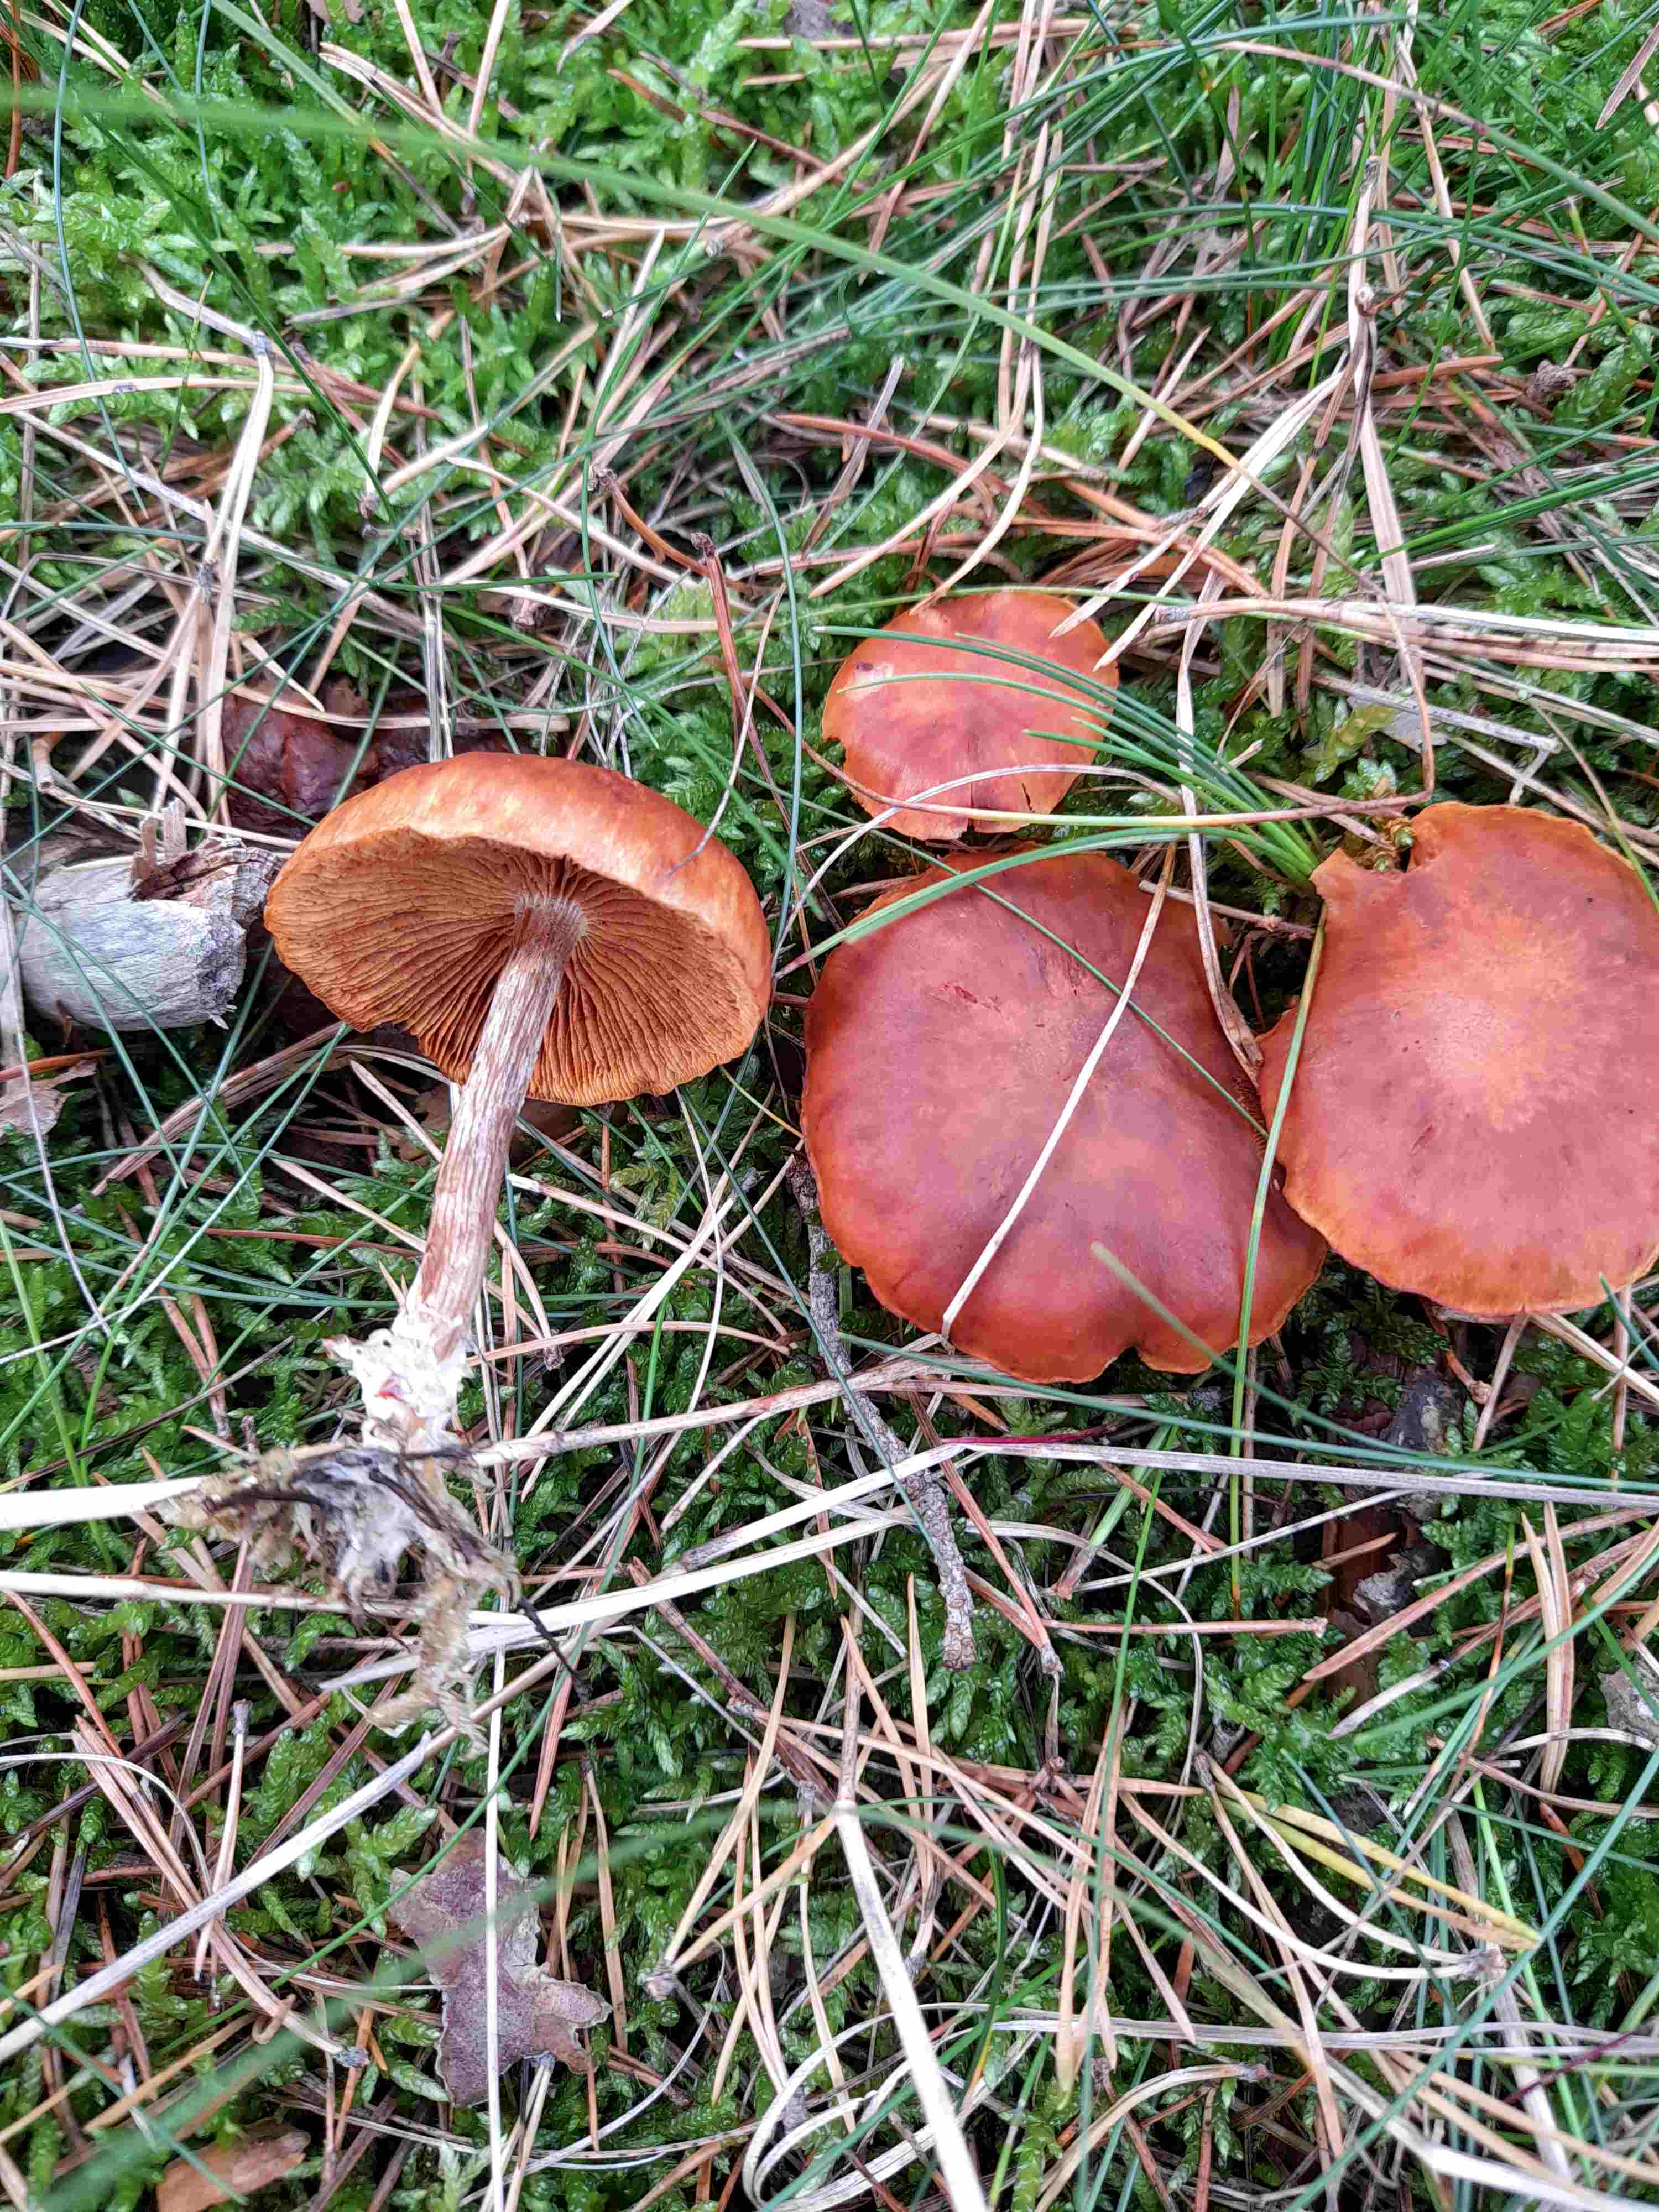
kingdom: Fungi
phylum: Basidiomycota
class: Agaricomycetes
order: Agaricales
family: Hymenogastraceae
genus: Gymnopilus
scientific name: Gymnopilus penetrans
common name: plettet flammehat
